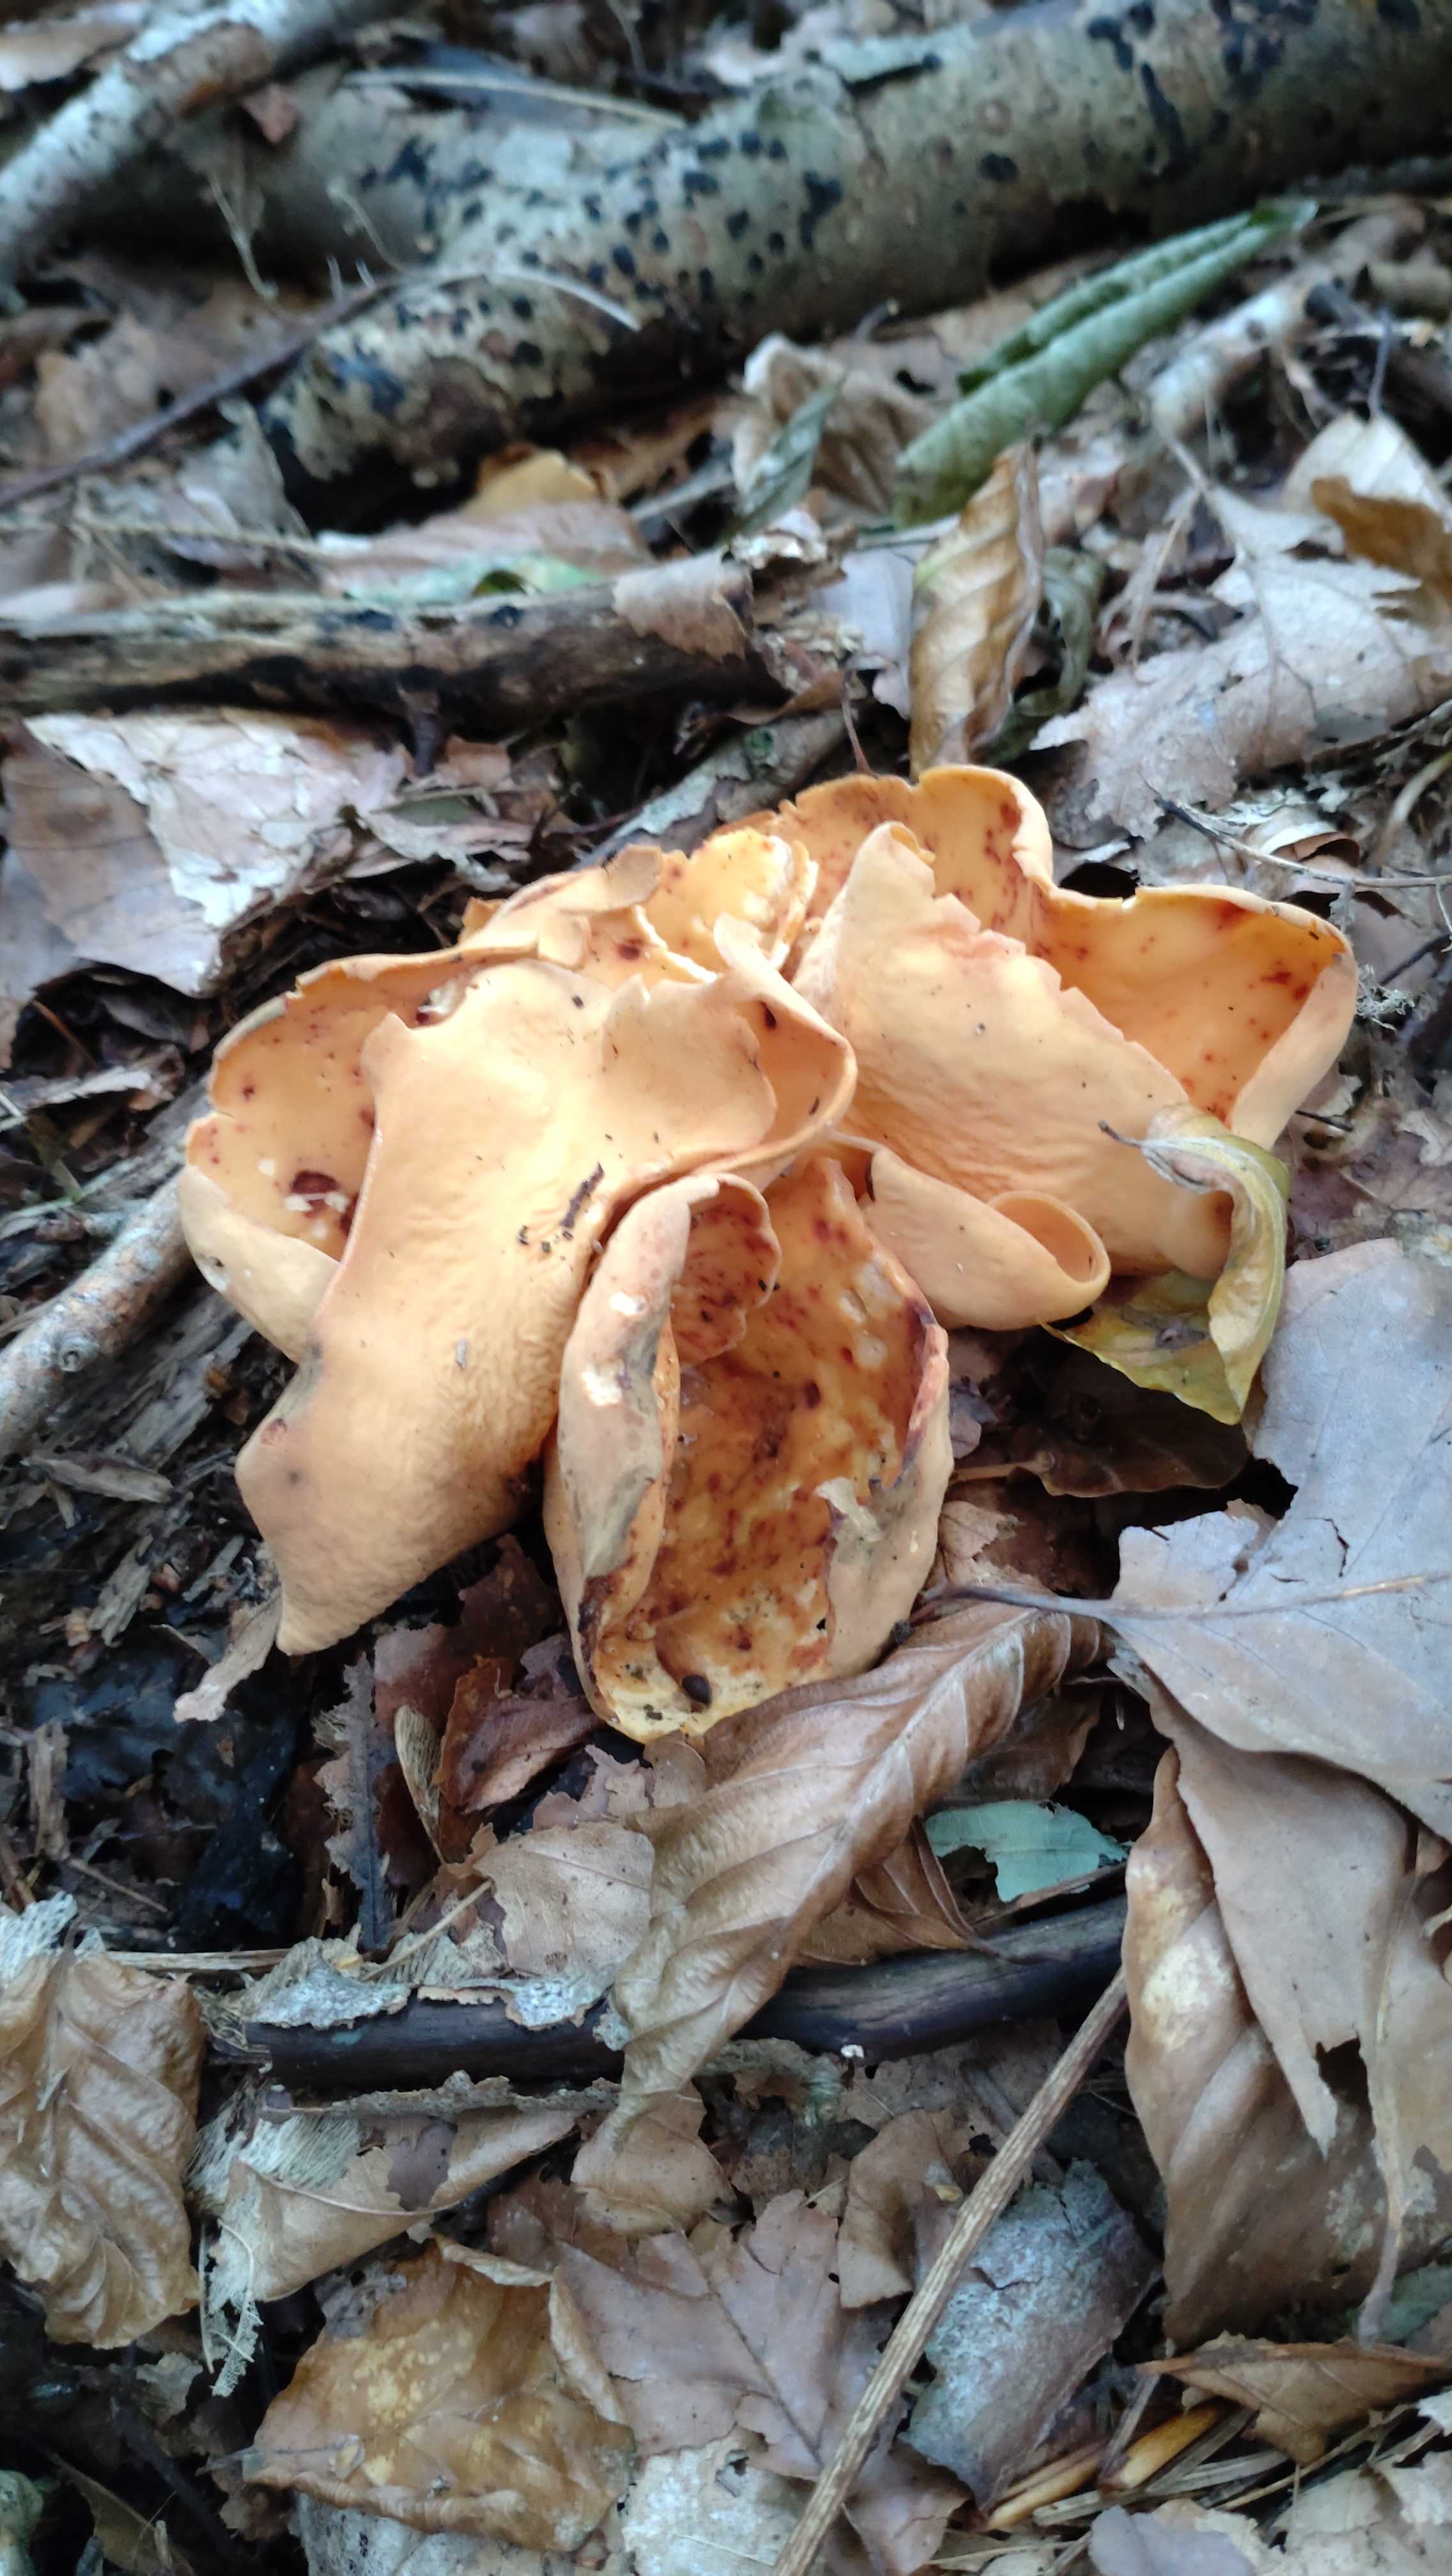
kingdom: Fungi
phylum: Ascomycota
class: Pezizomycetes
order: Pezizales
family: Otideaceae
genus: Otidea
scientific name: Otidea onotica
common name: æsel-ørebæger
